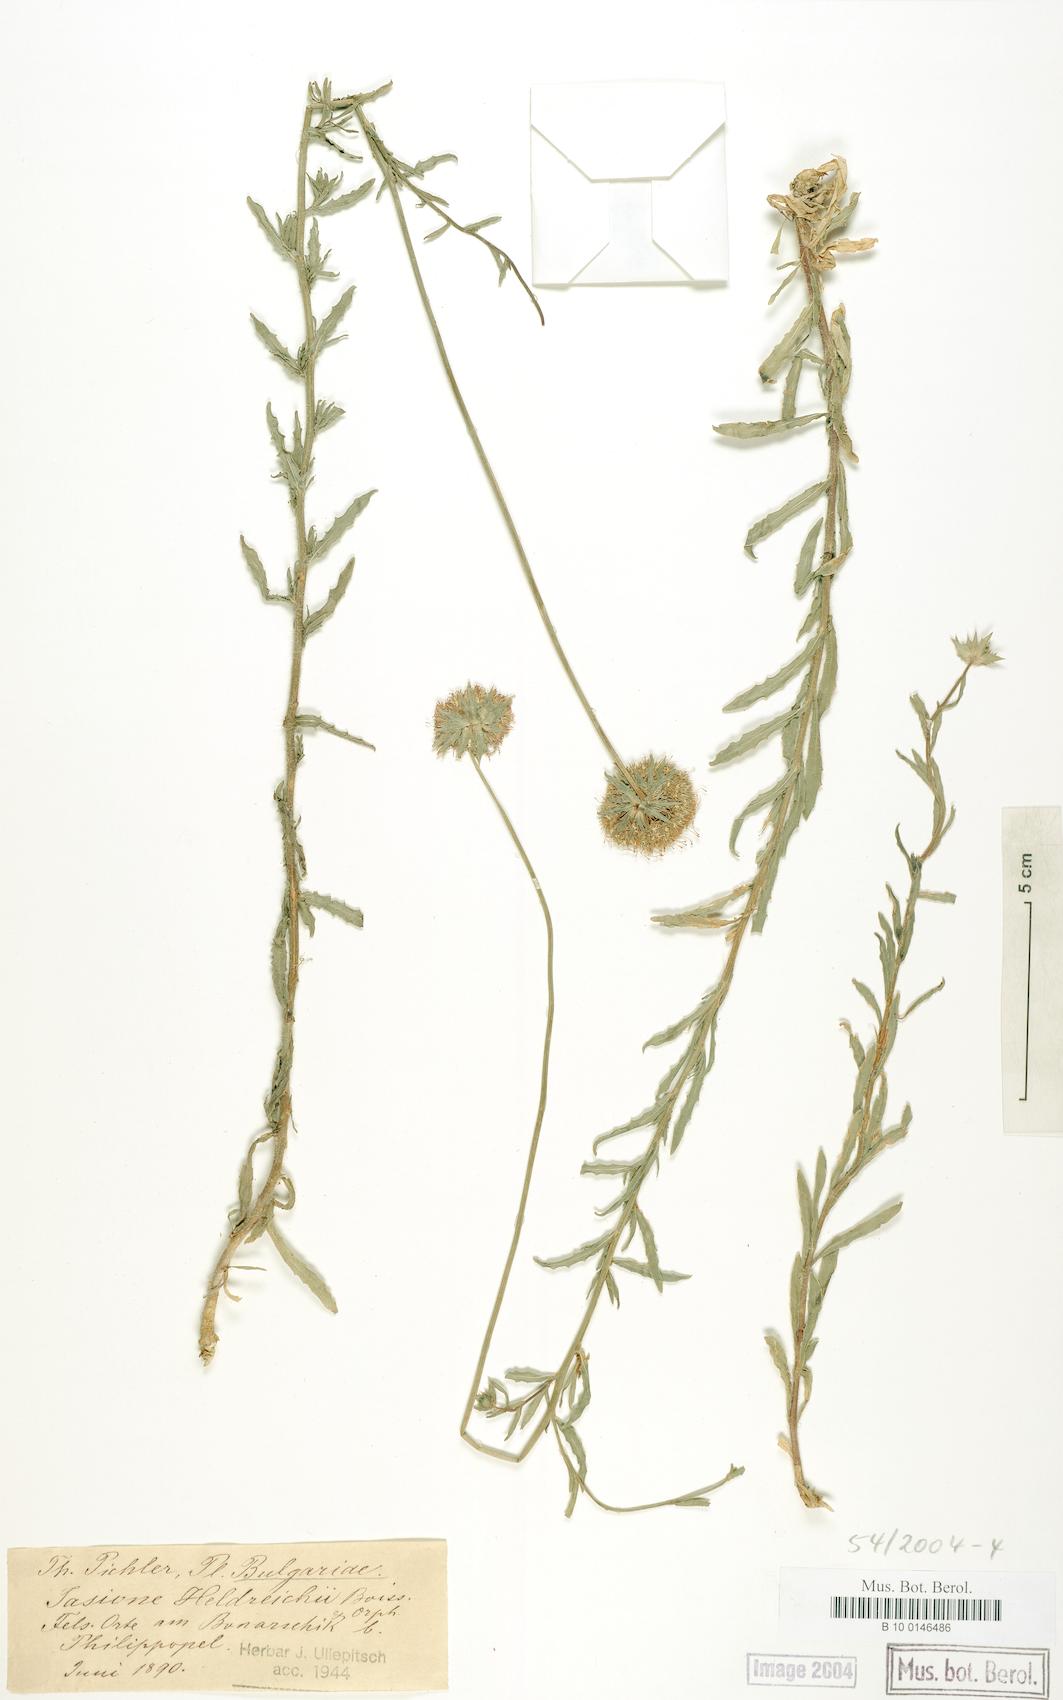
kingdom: Plantae
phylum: Tracheophyta
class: Magnoliopsida
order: Asterales
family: Campanulaceae
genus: Jasione
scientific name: Jasione heldreichii
